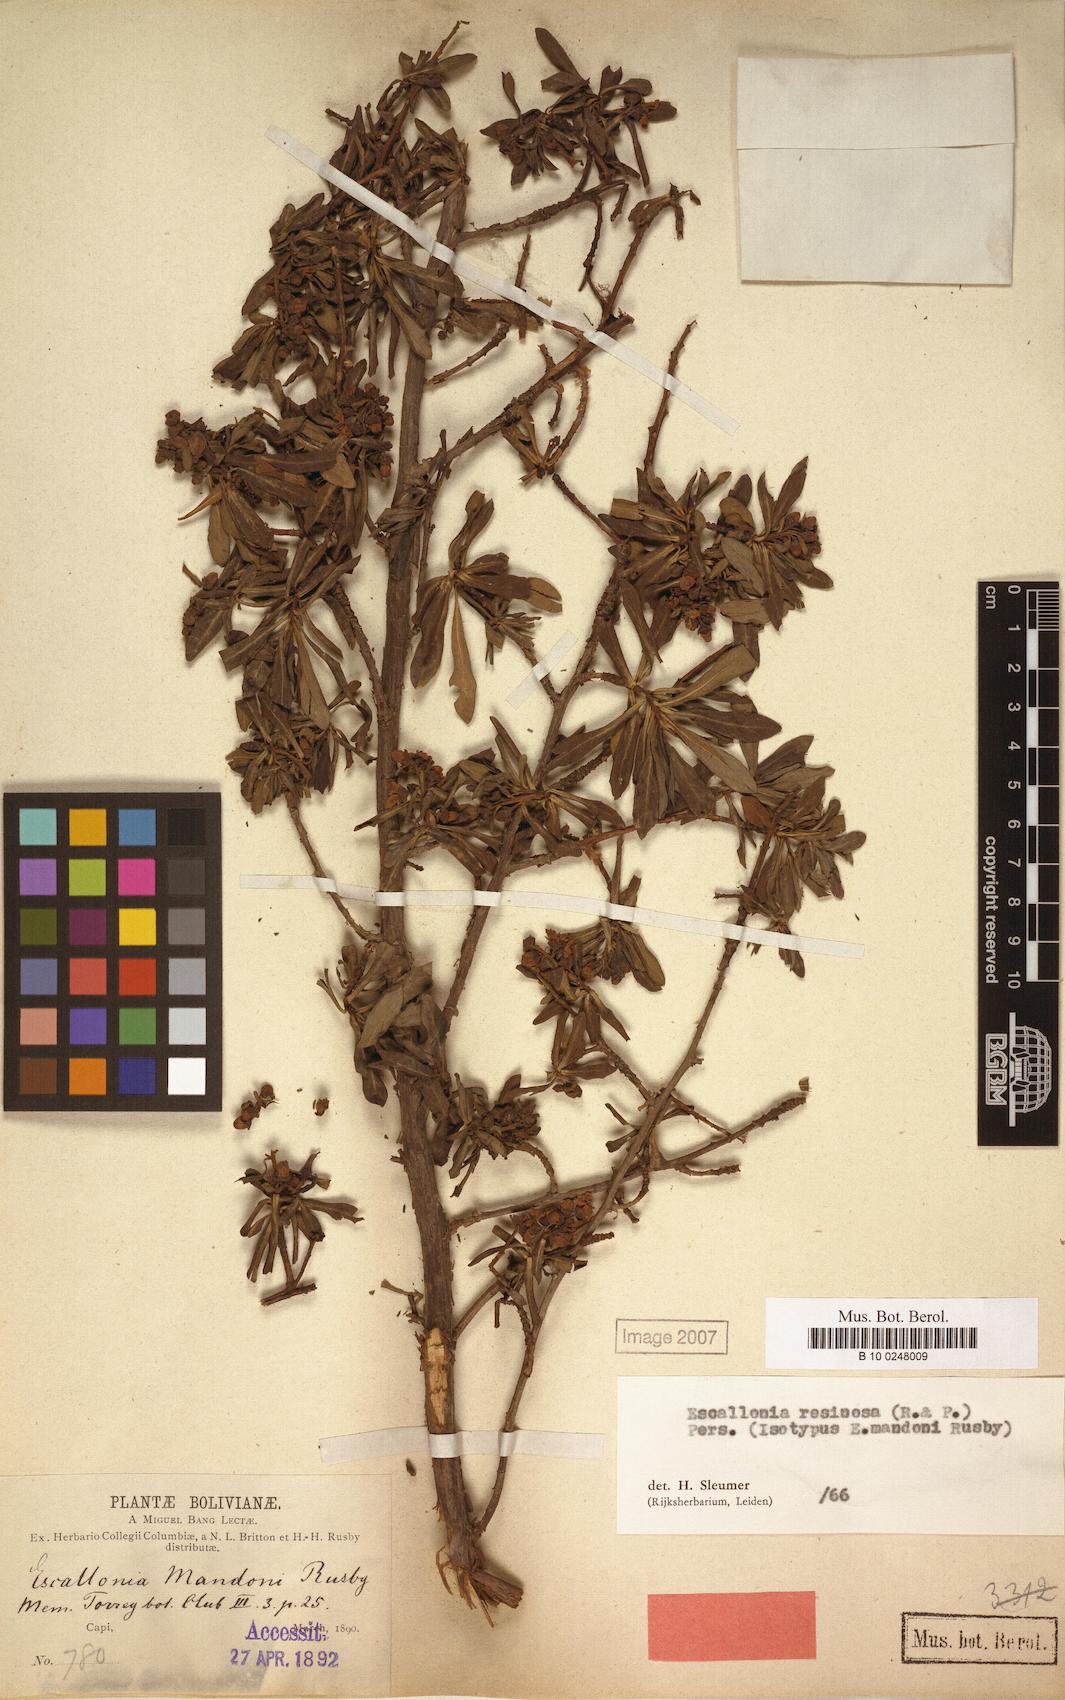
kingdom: Plantae
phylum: Tracheophyta
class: Magnoliopsida
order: Escalloniales
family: Escalloniaceae
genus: Escallonia
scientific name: Escallonia resinosa
